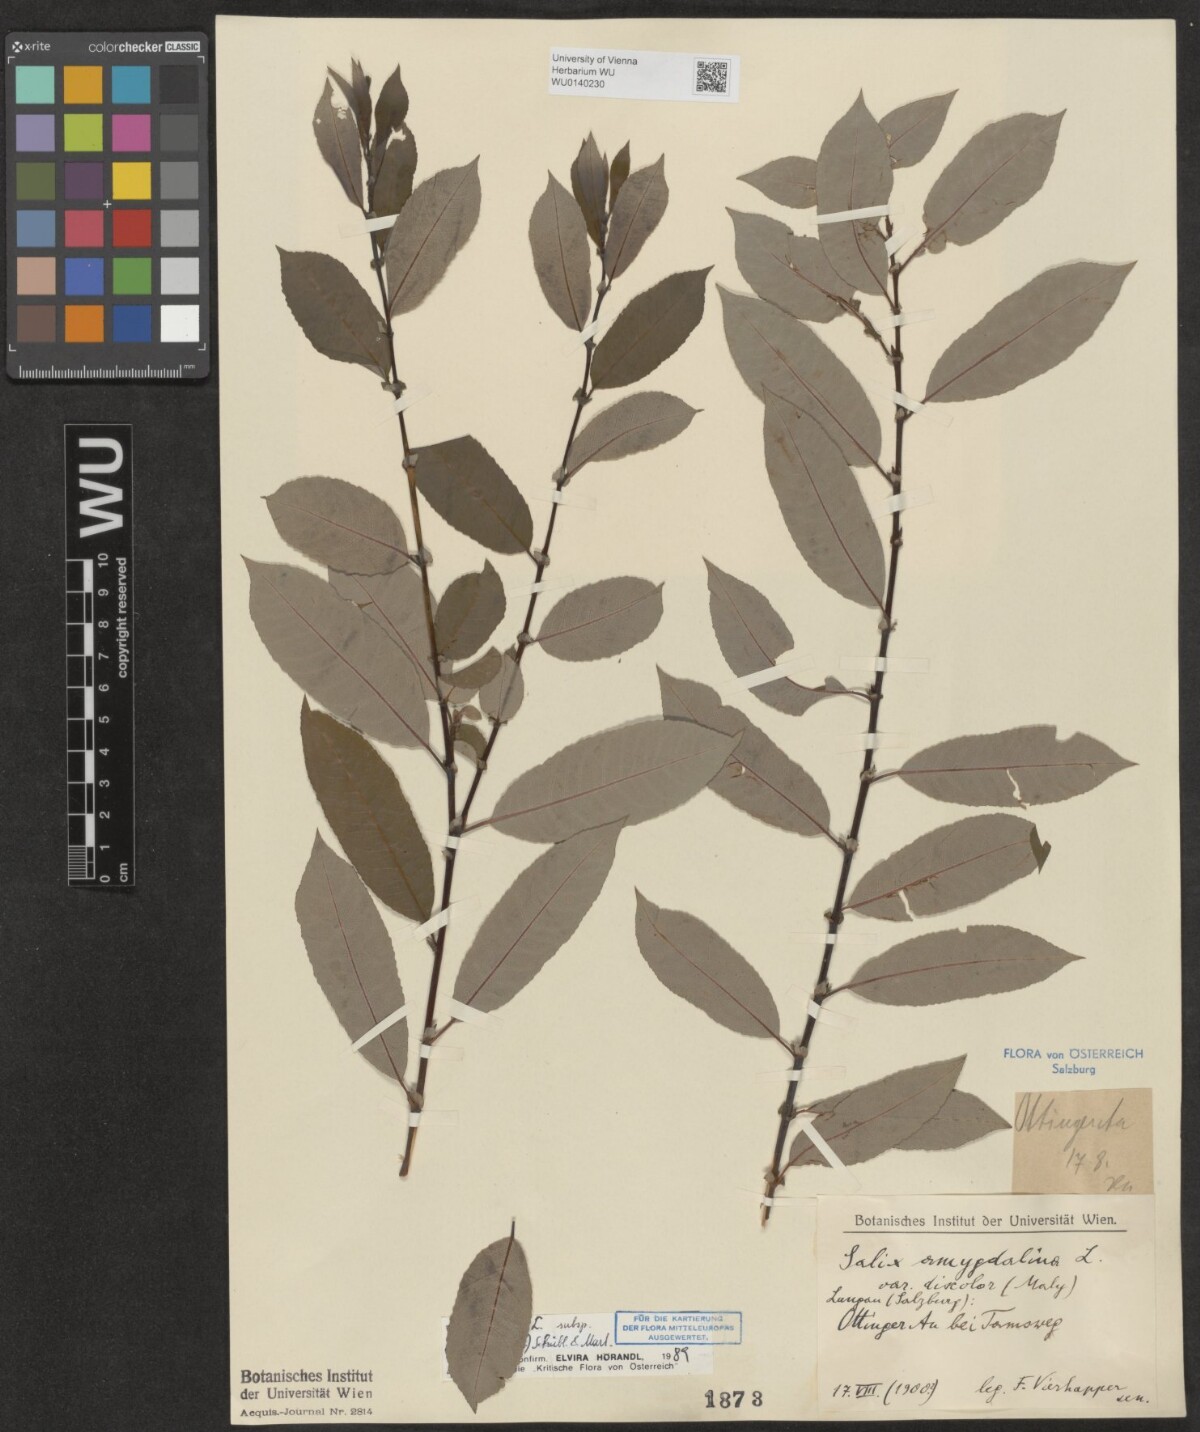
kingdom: Plantae
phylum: Tracheophyta
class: Magnoliopsida
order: Malpighiales
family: Salicaceae
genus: Salix
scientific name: Salix triandra
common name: Almond willow
